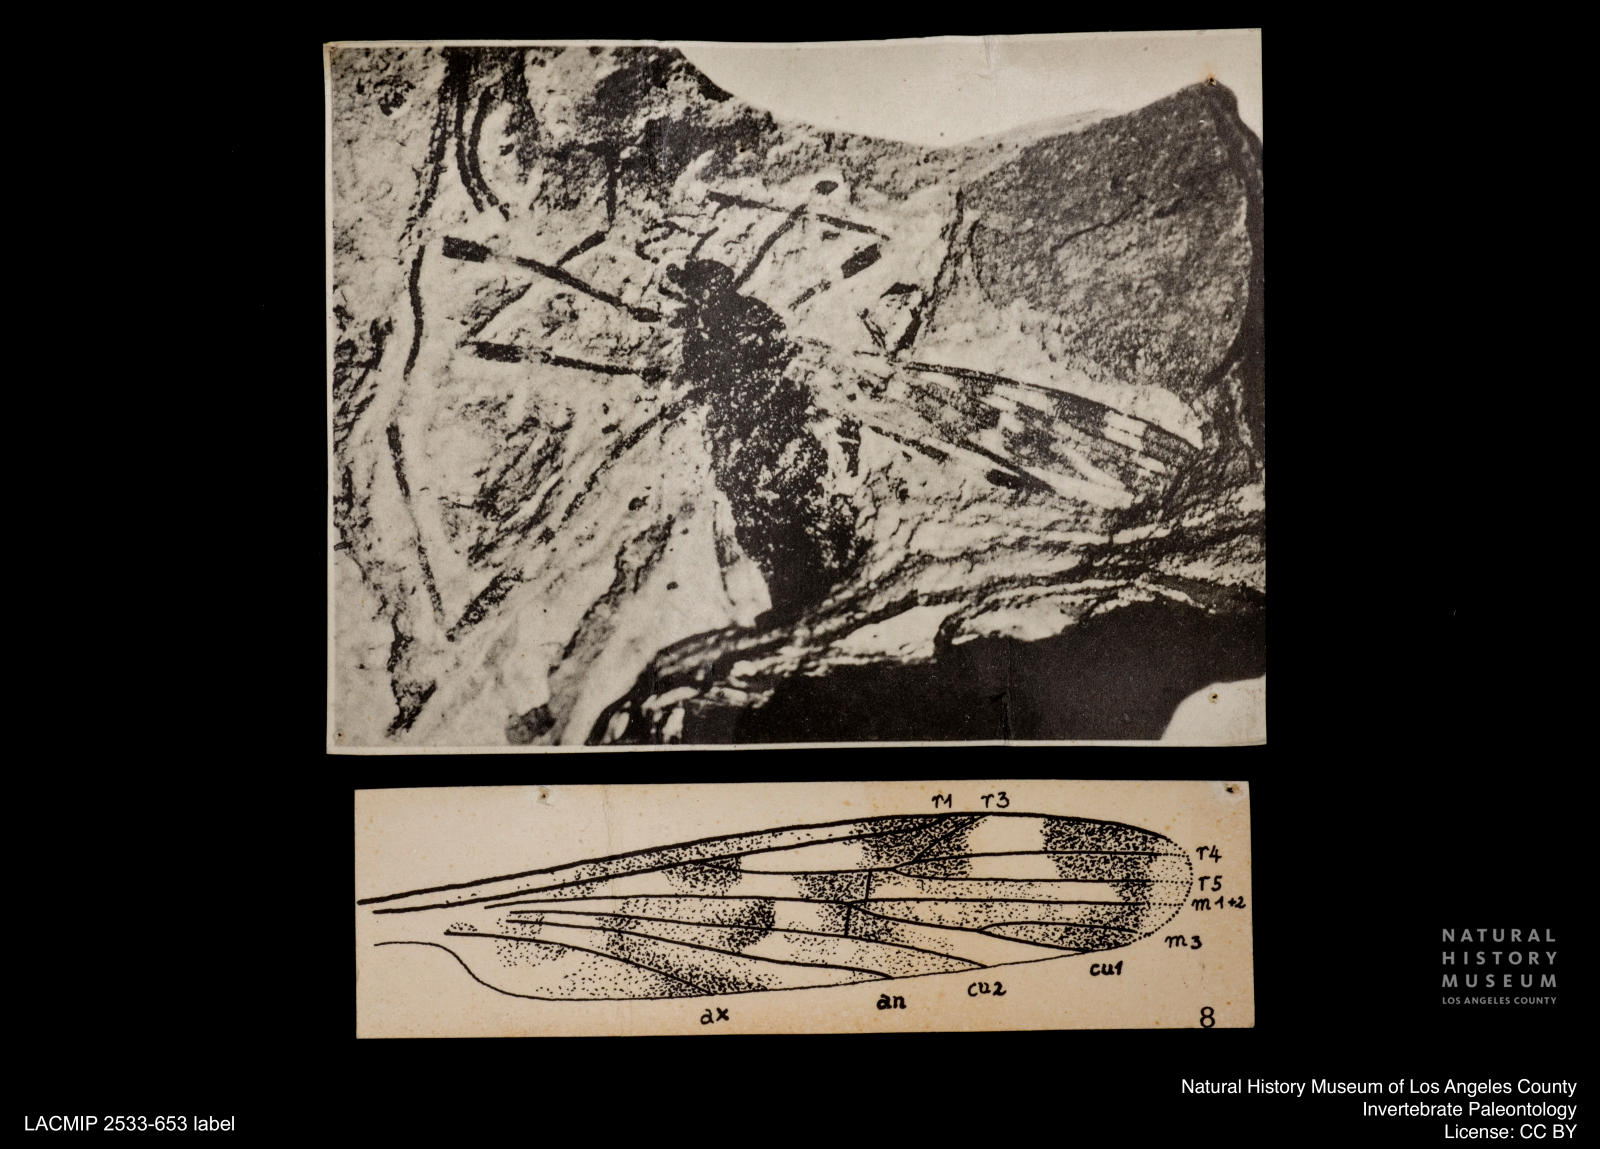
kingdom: Animalia
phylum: Arthropoda
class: Insecta
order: Diptera
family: Limoniidae
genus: Rhabdomastix
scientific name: Rhabdomastix oligocaenica
